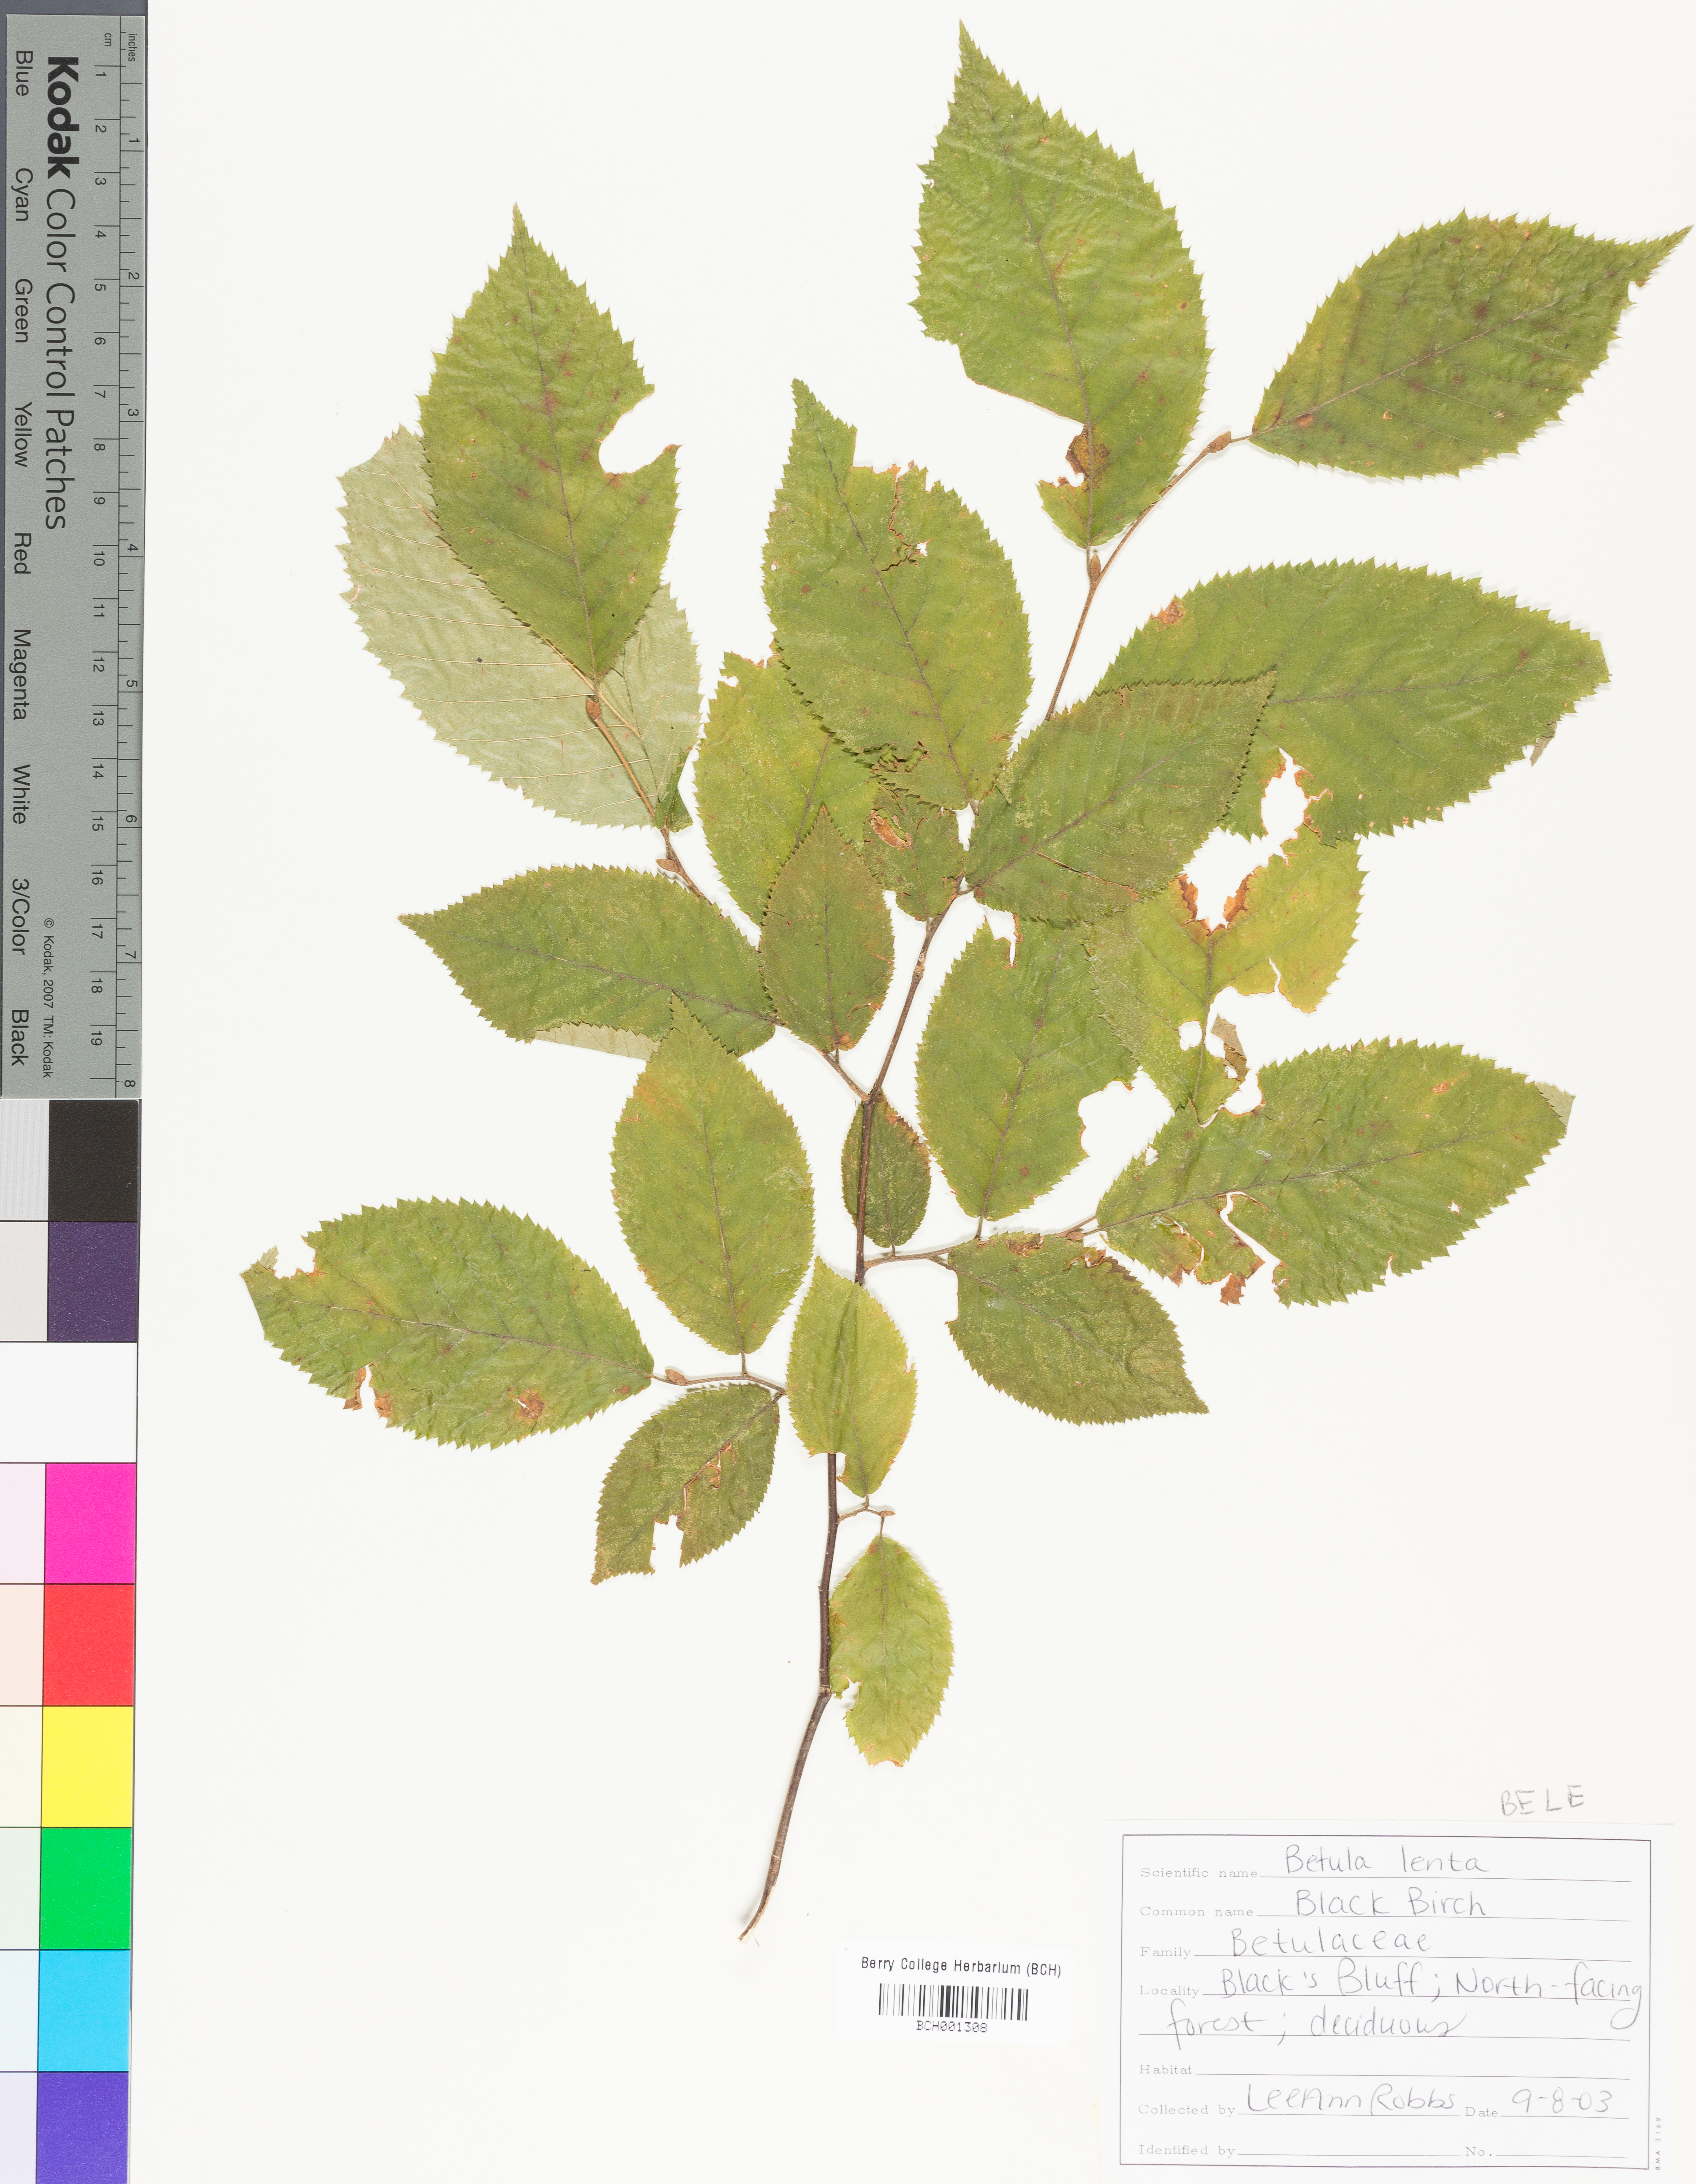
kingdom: Plantae
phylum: Tracheophyta
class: Magnoliopsida
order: Fagales
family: Betulaceae
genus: Betula
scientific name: Betula lenta
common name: Black birch
